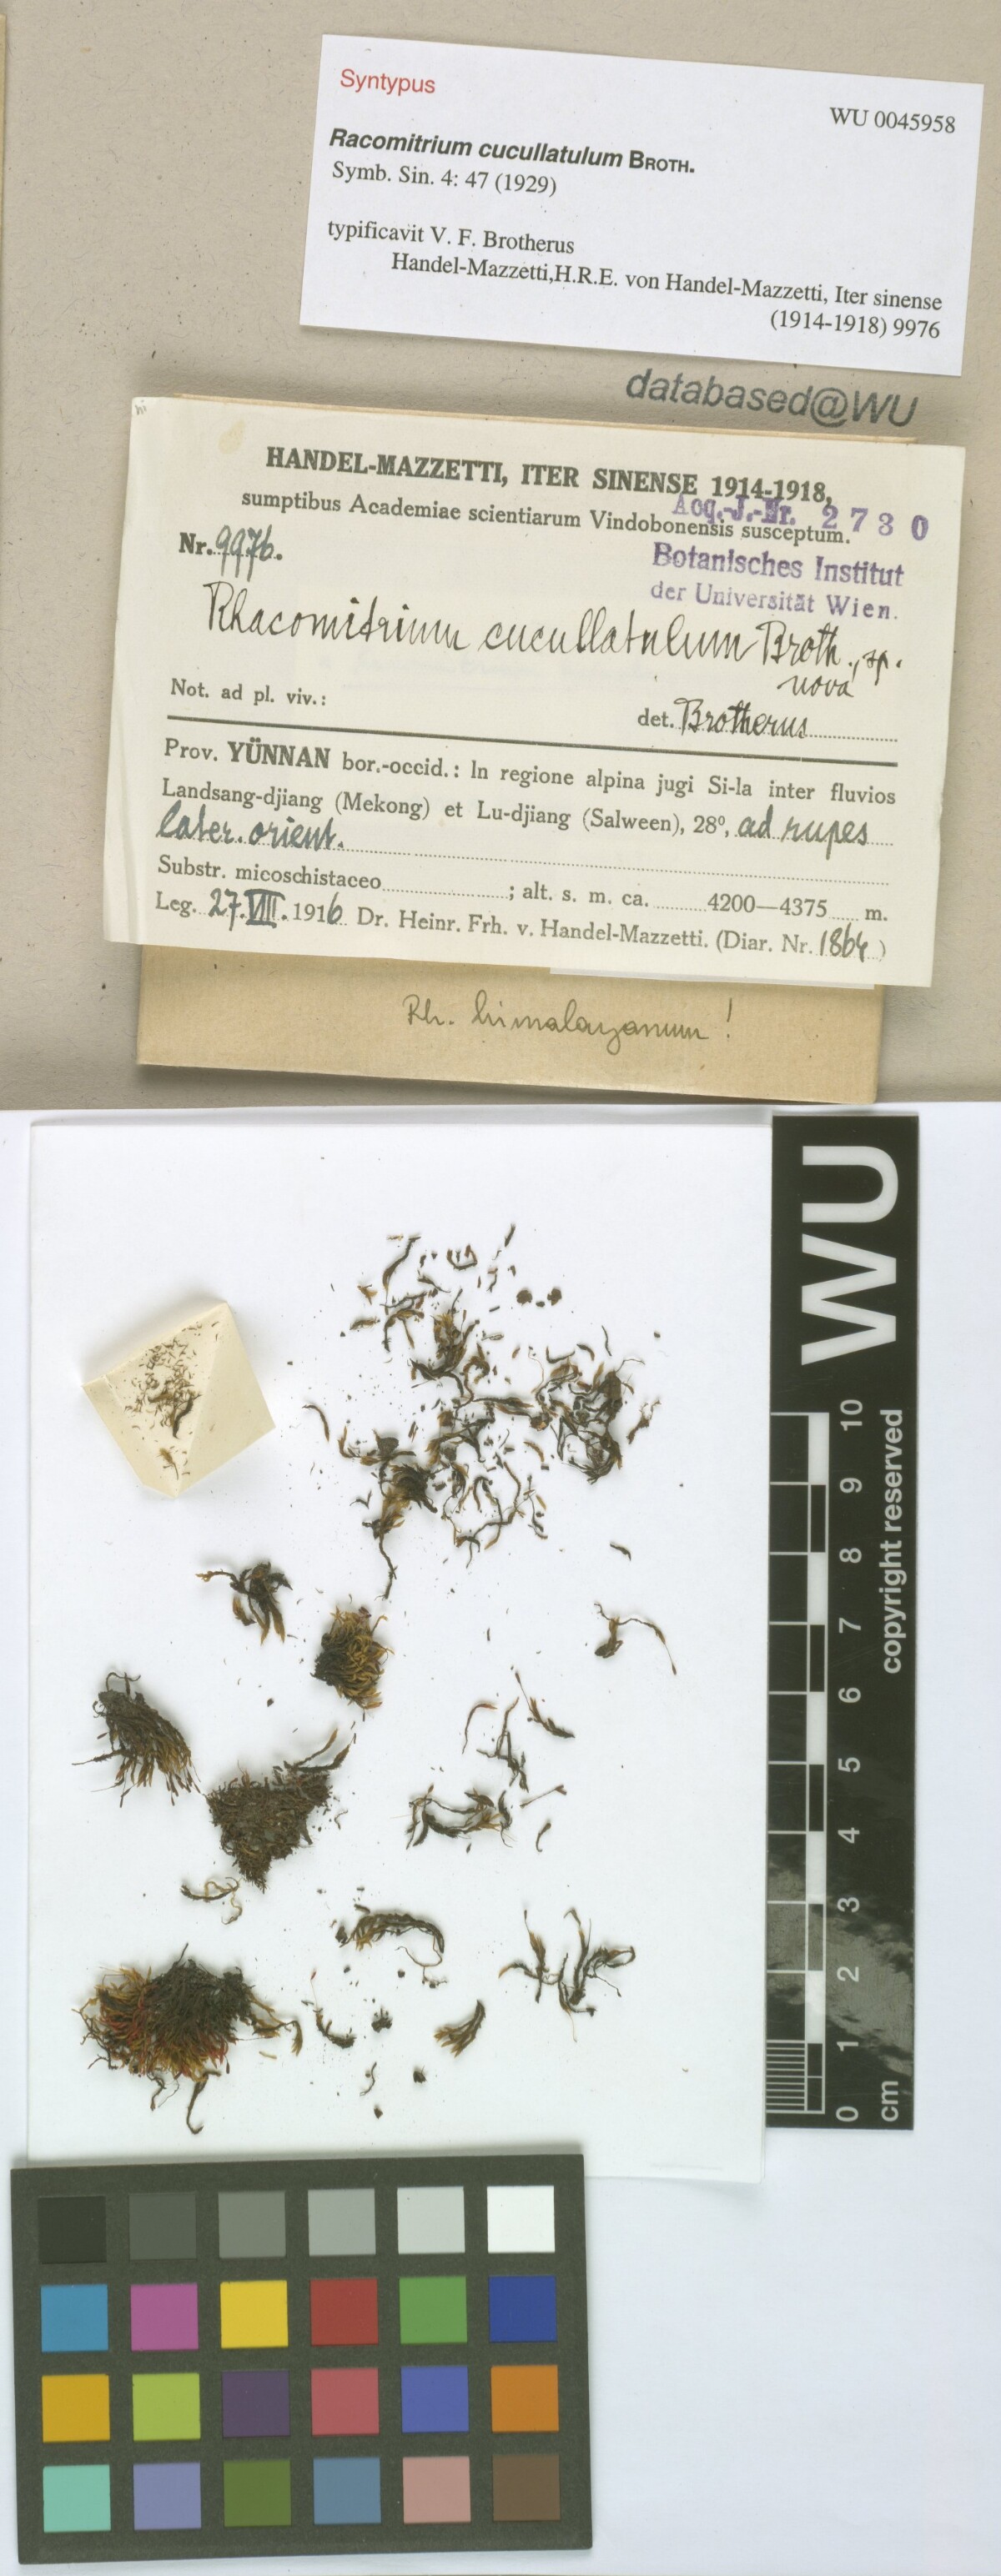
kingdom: Plantae
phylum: Bryophyta
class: Bryopsida
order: Grimmiales
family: Grimmiaceae
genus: Bucklandiella
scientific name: Bucklandiella cucullatula
